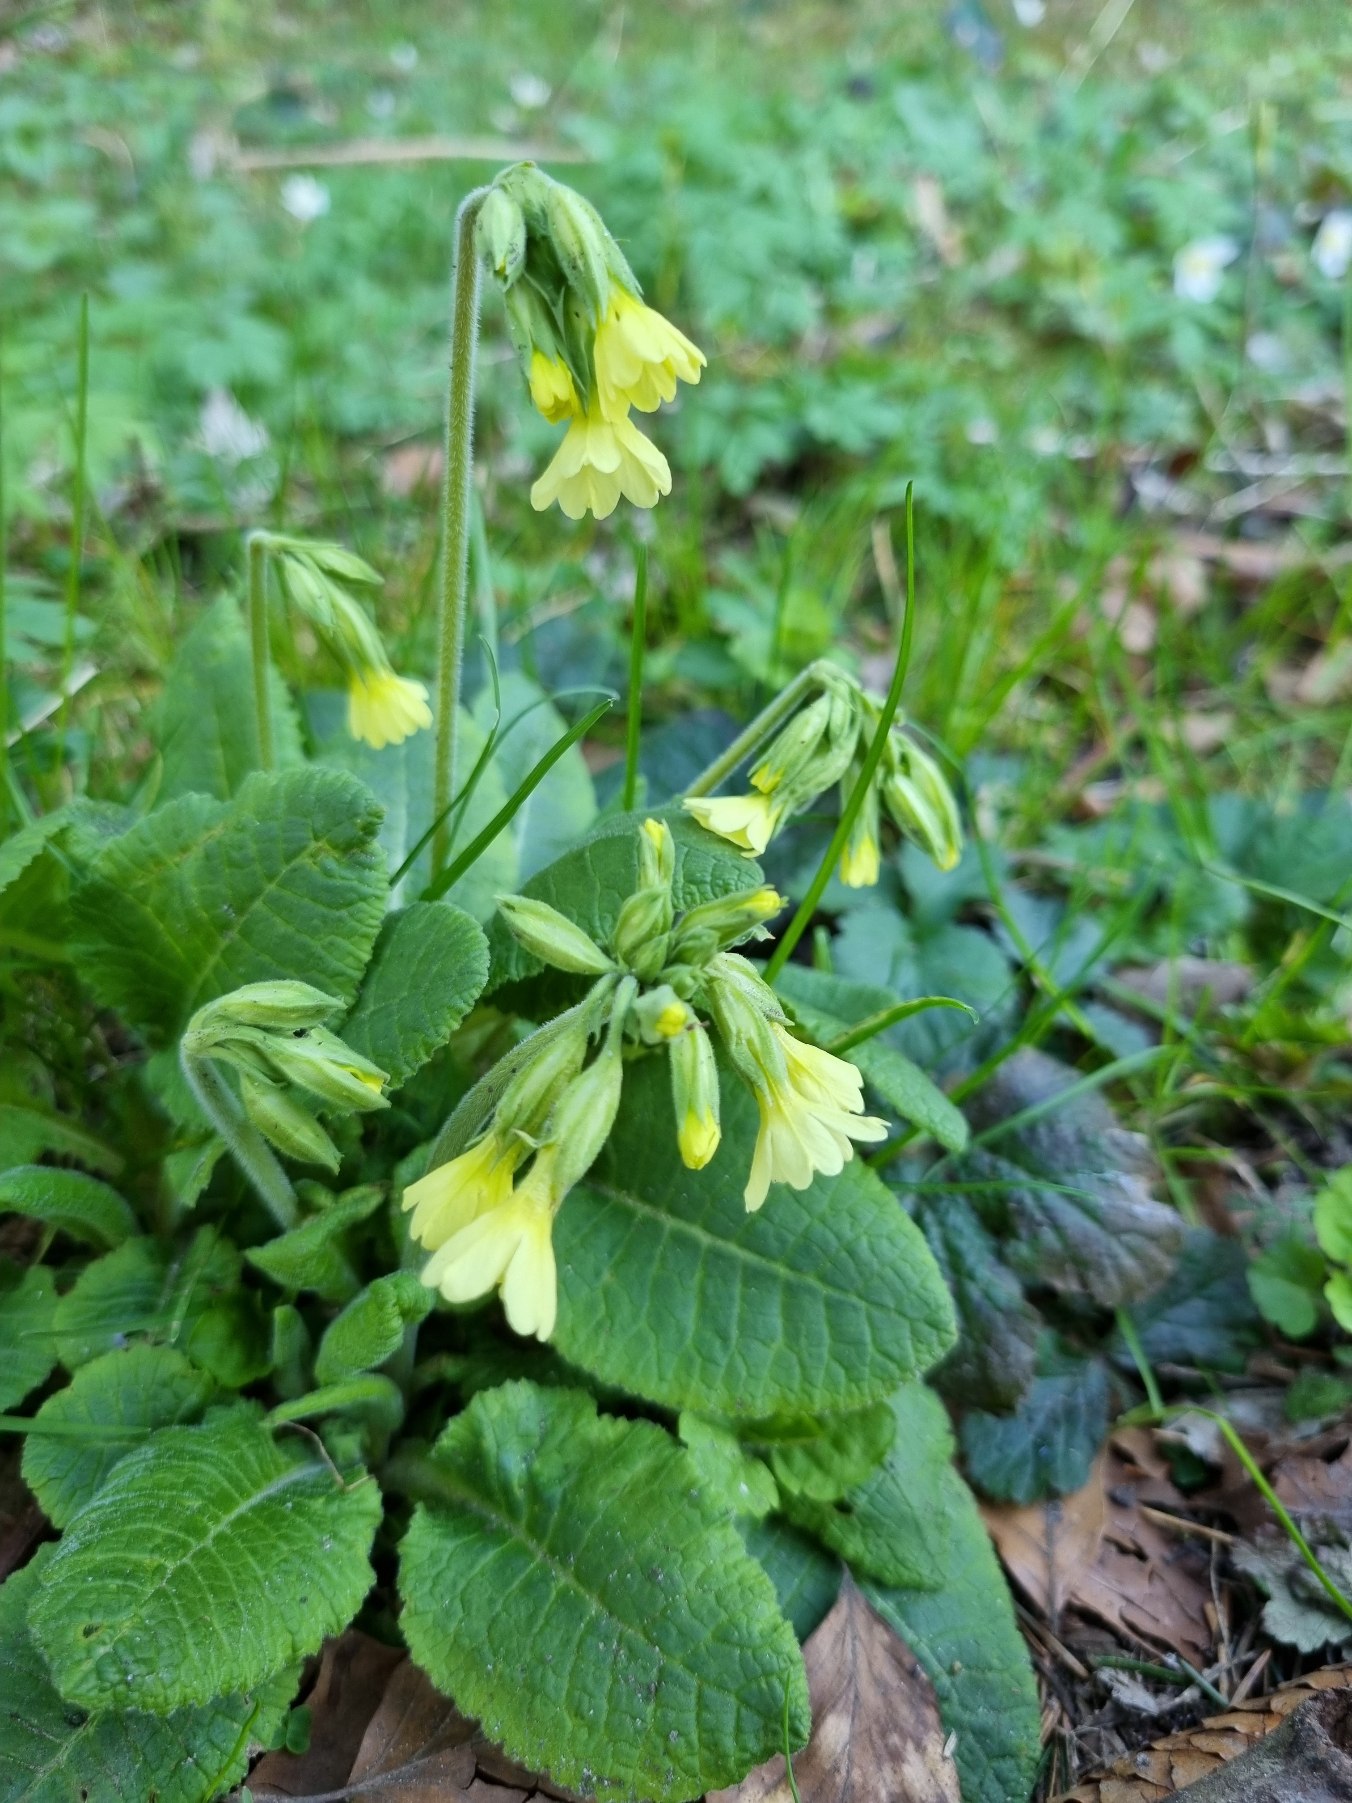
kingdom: Plantae
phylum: Tracheophyta
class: Magnoliopsida
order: Ericales
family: Primulaceae
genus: Primula
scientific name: Primula elatior
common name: Fladkravet kodriver
